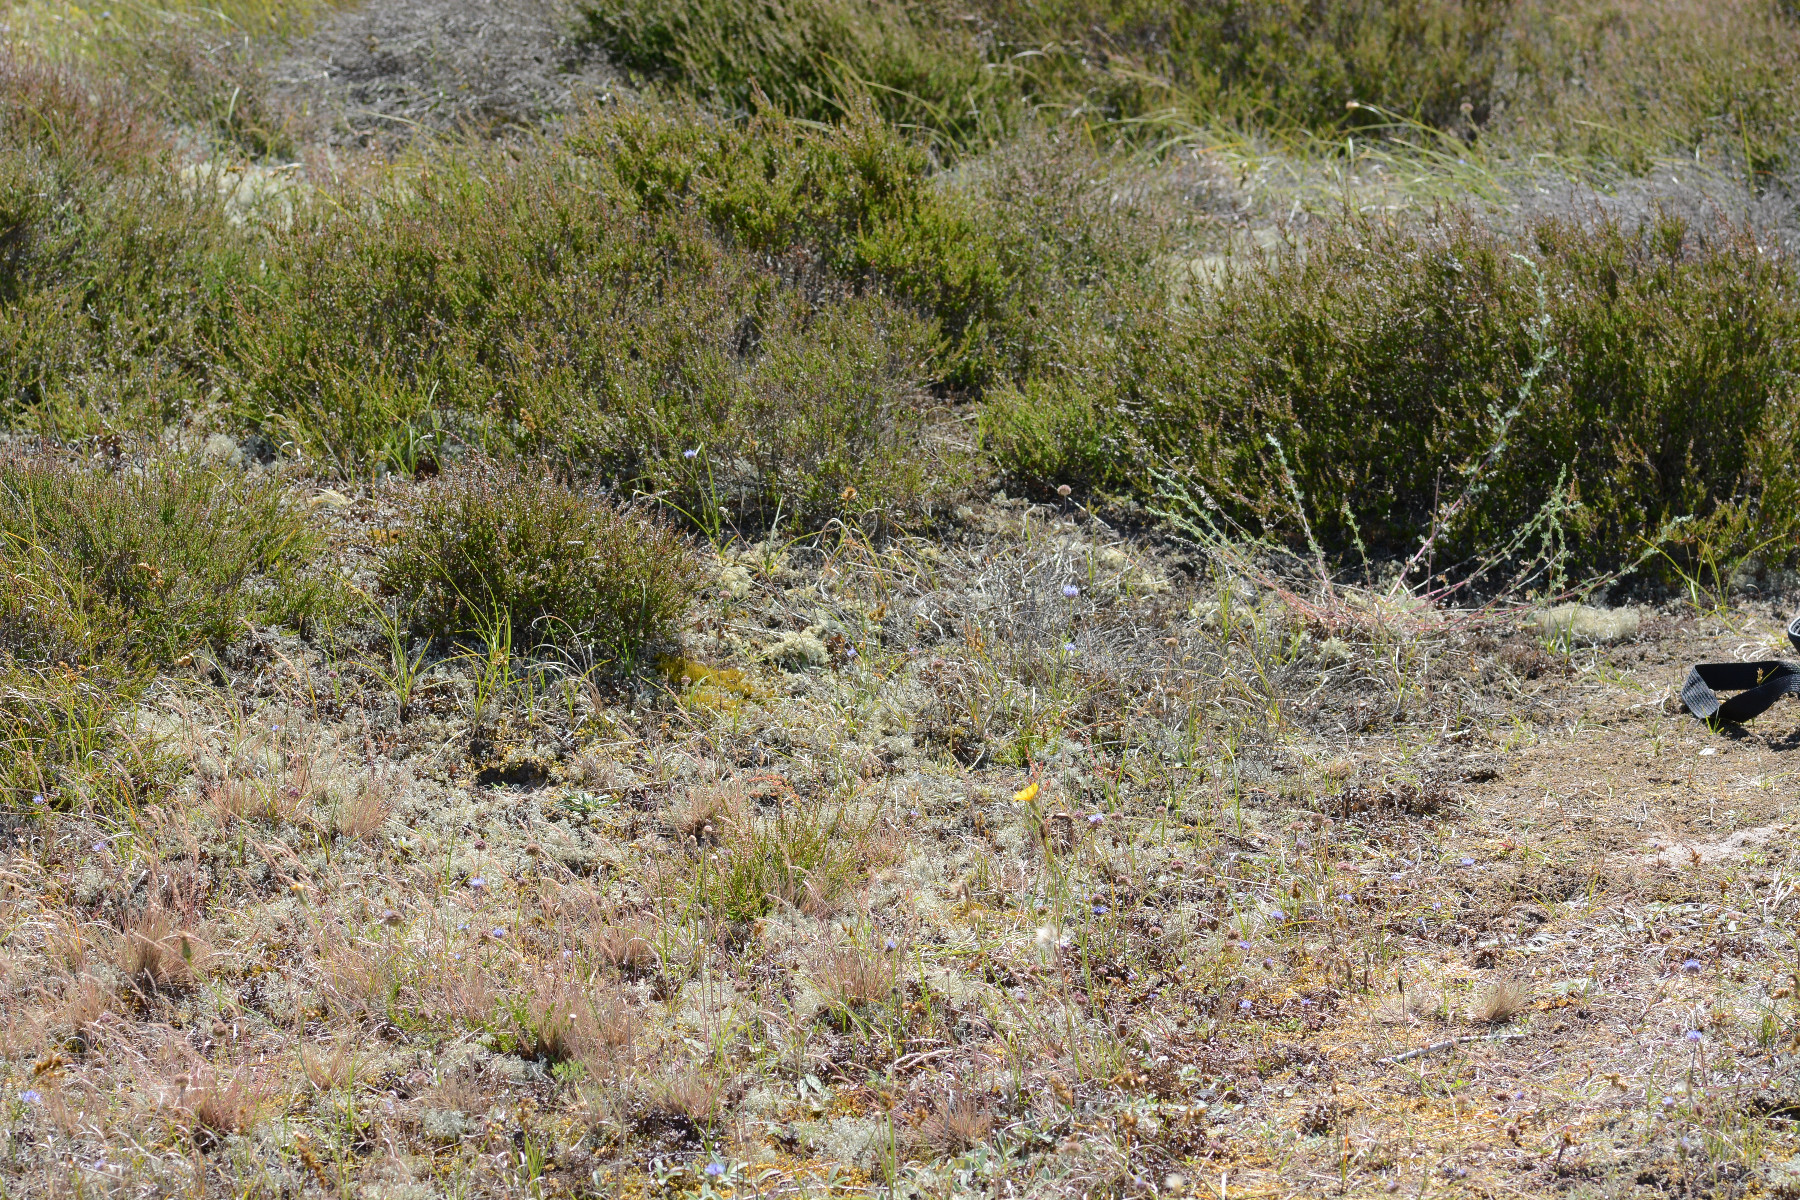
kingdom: Fungi
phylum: Ascomycota
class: Lecanoromycetes
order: Lecanorales
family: Parmeliaceae
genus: Nephromopsis
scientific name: Nephromopsis nivalis
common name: sne-kruslav
